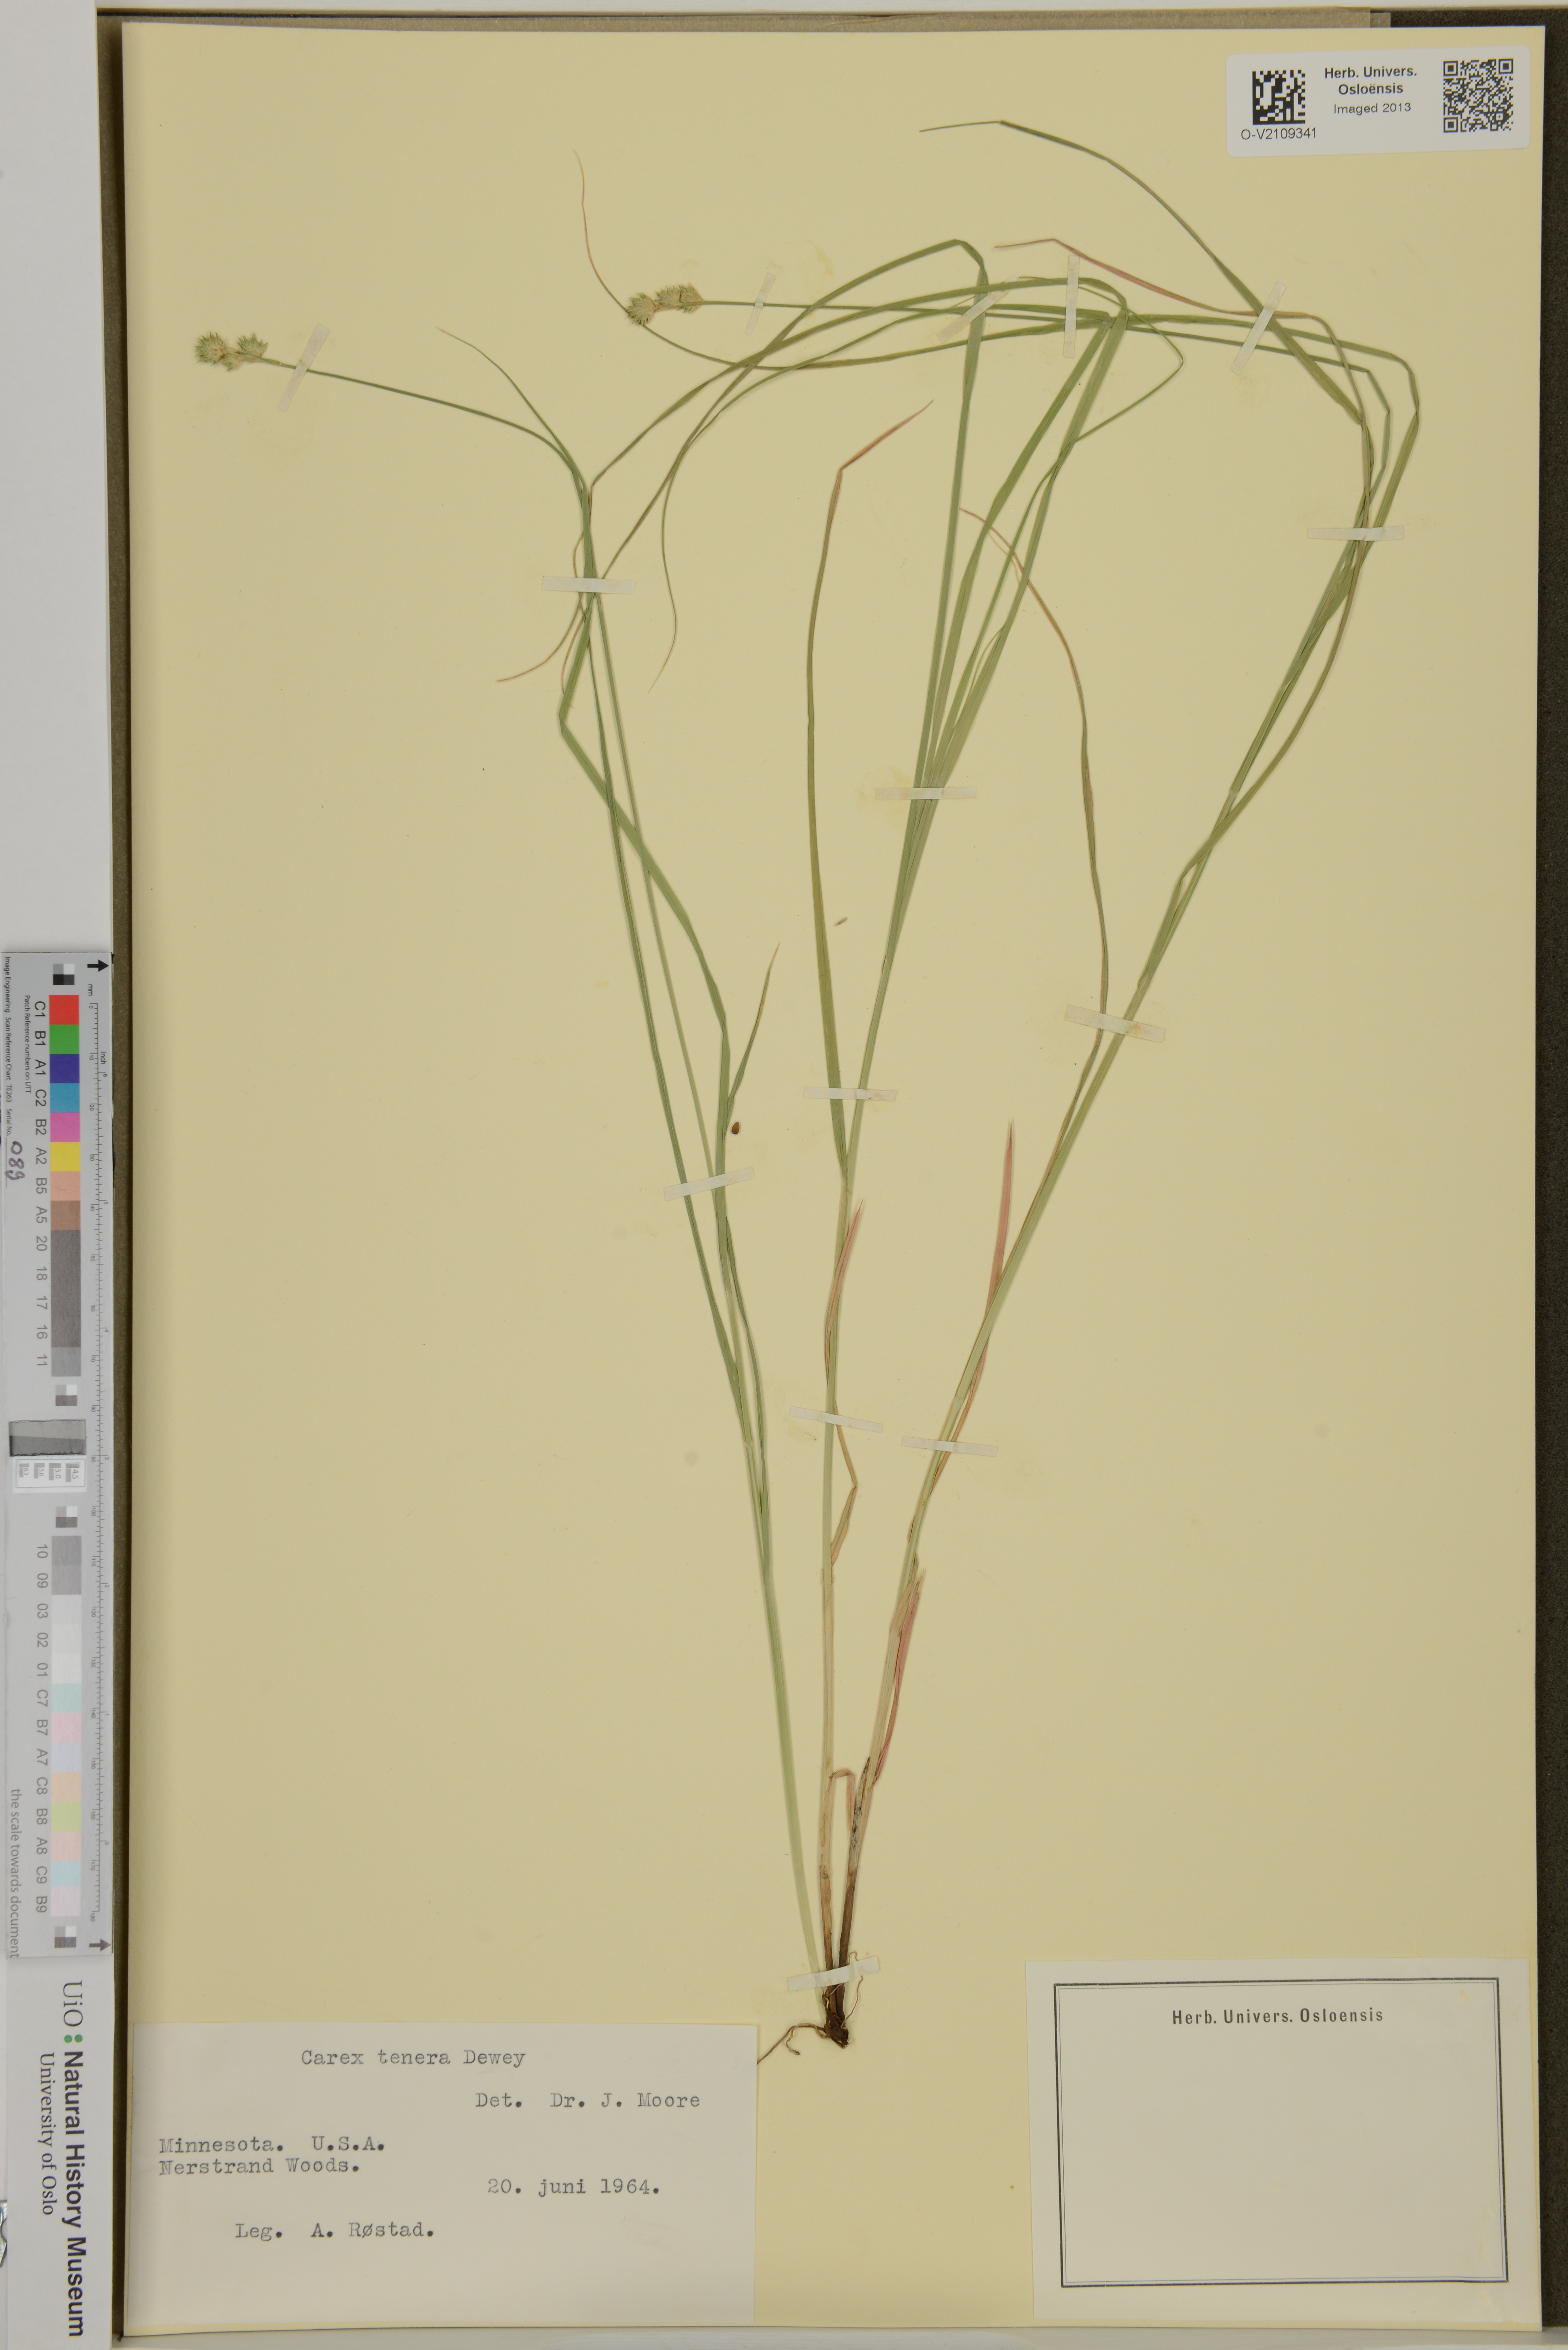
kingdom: Plantae
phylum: Tracheophyta
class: Liliopsida
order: Poales
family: Cyperaceae
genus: Carex
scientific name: Carex tenera
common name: Broad-fruited sedge
